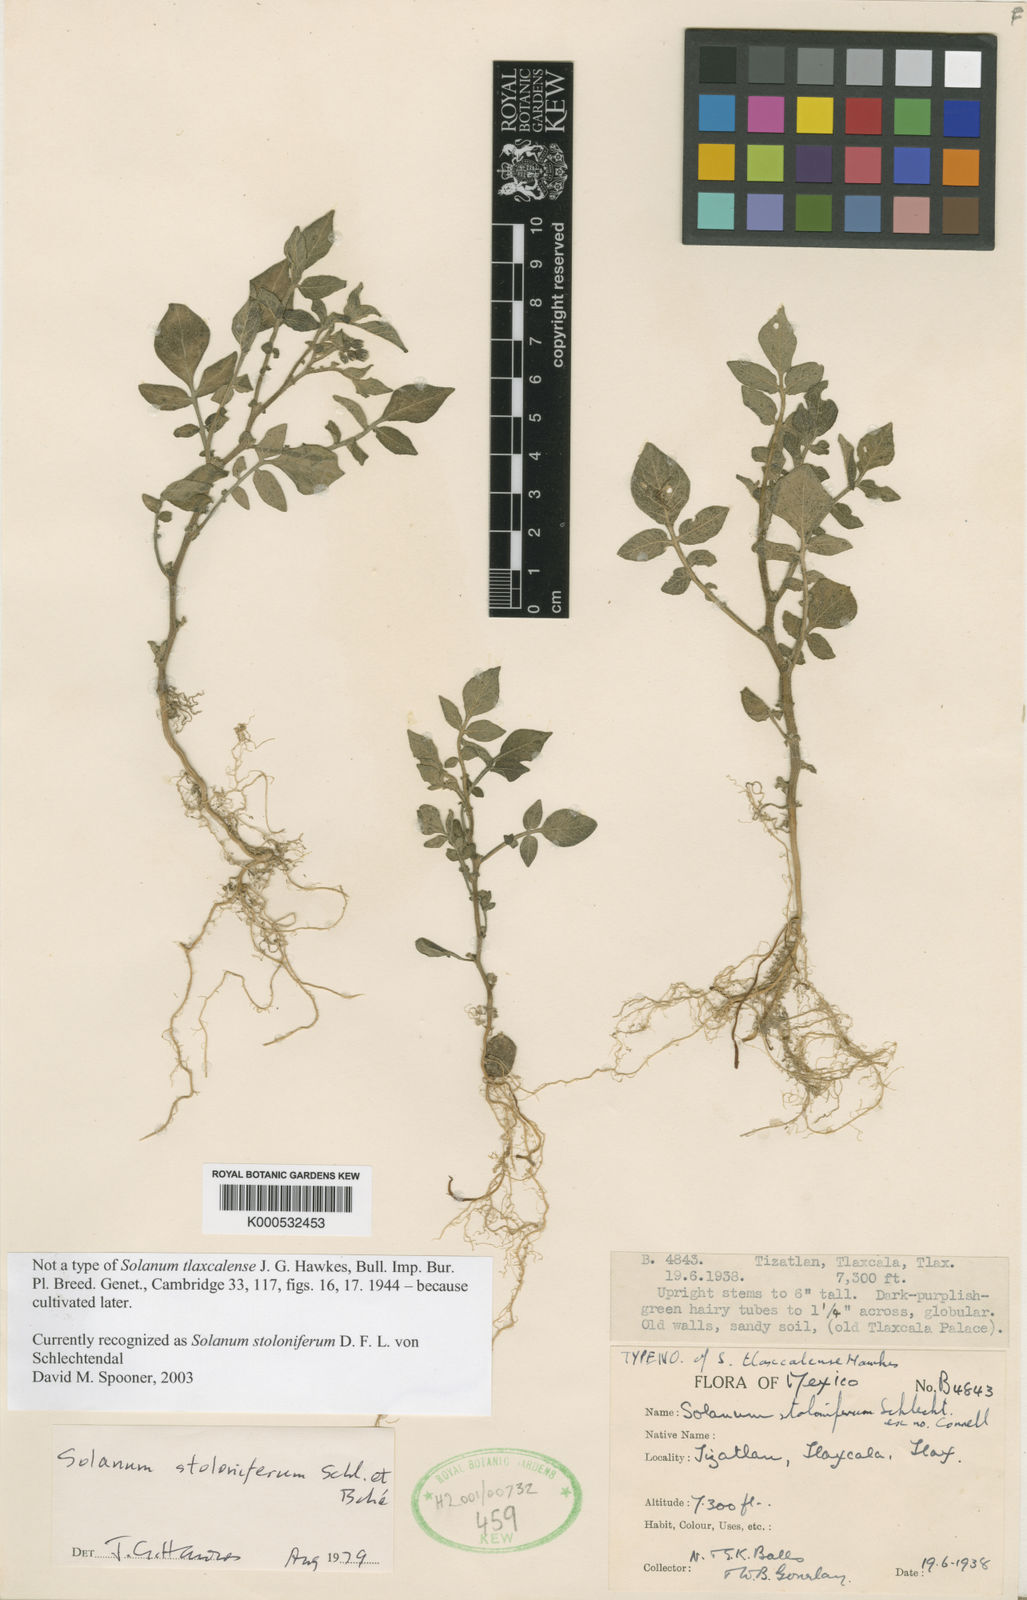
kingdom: Plantae
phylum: Tracheophyta
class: Magnoliopsida
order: Solanales
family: Solanaceae
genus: Solanum
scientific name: Solanum
